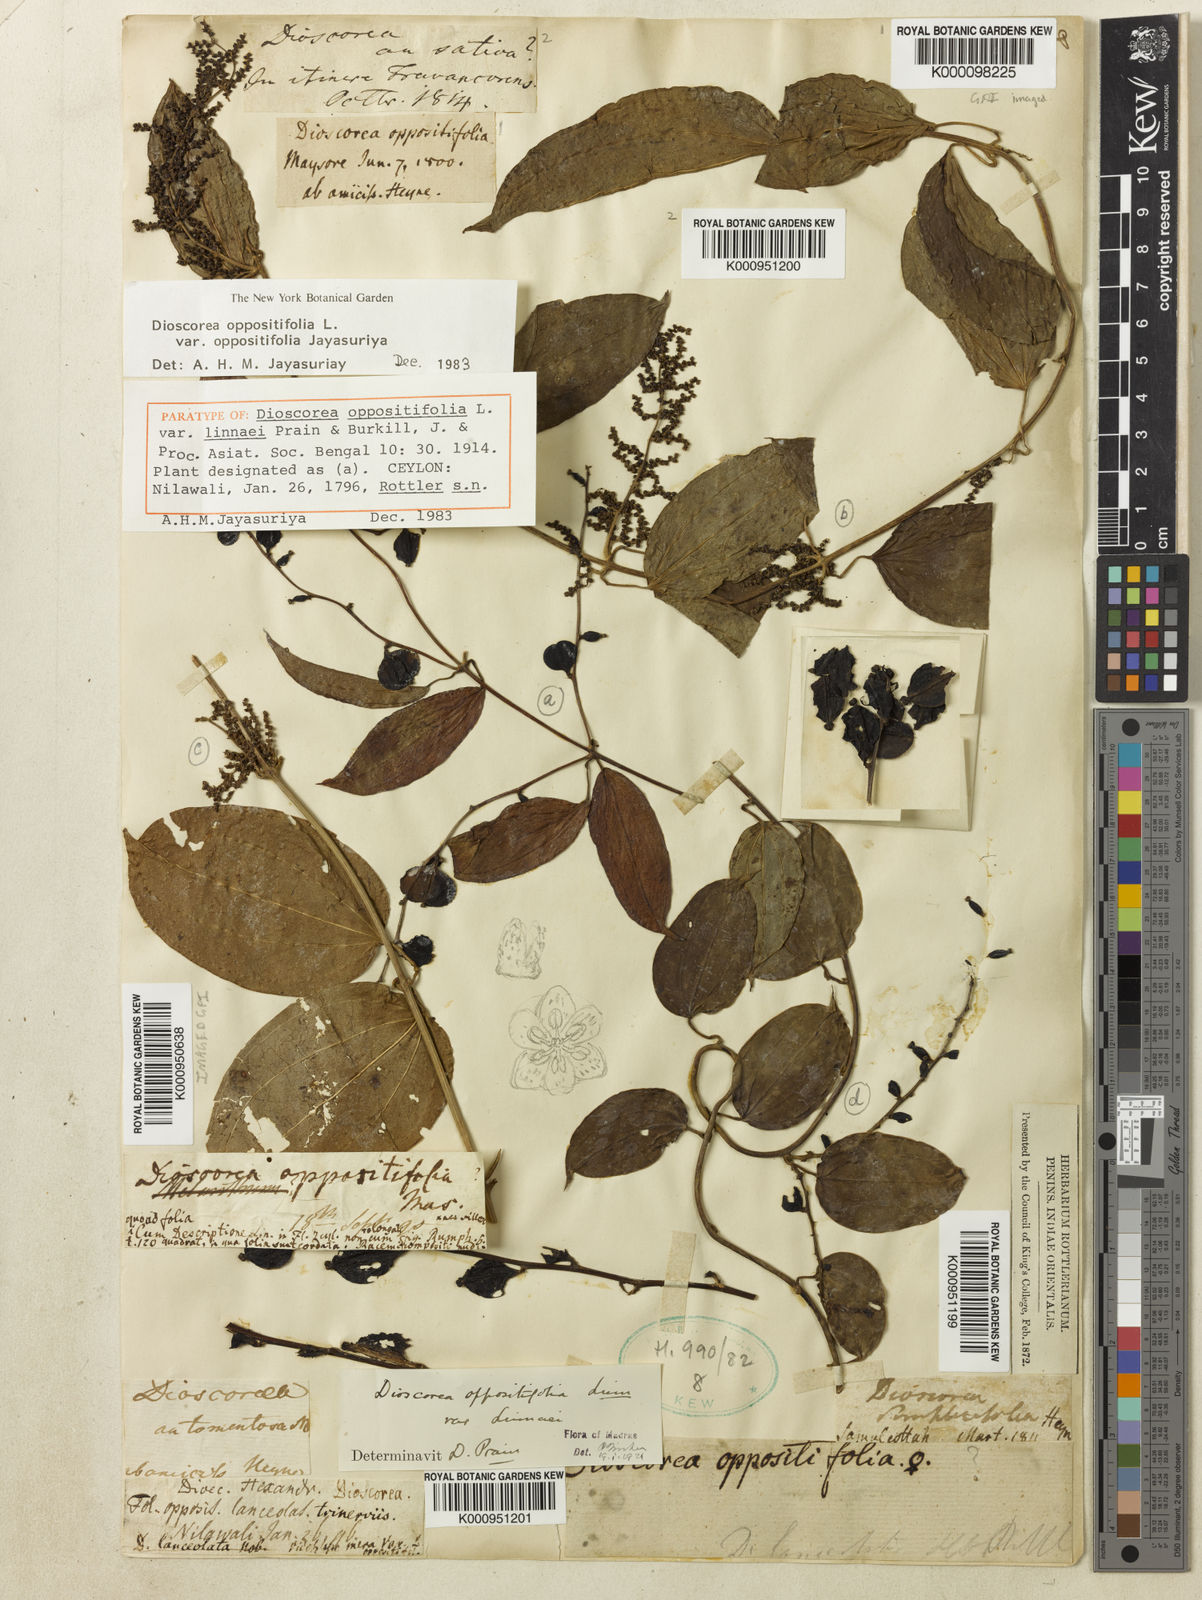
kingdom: Plantae
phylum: Tracheophyta
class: Liliopsida
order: Dioscoreales
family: Dioscoreaceae
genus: Dioscorea
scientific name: Dioscorea oppositifolia
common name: Chinese yam
